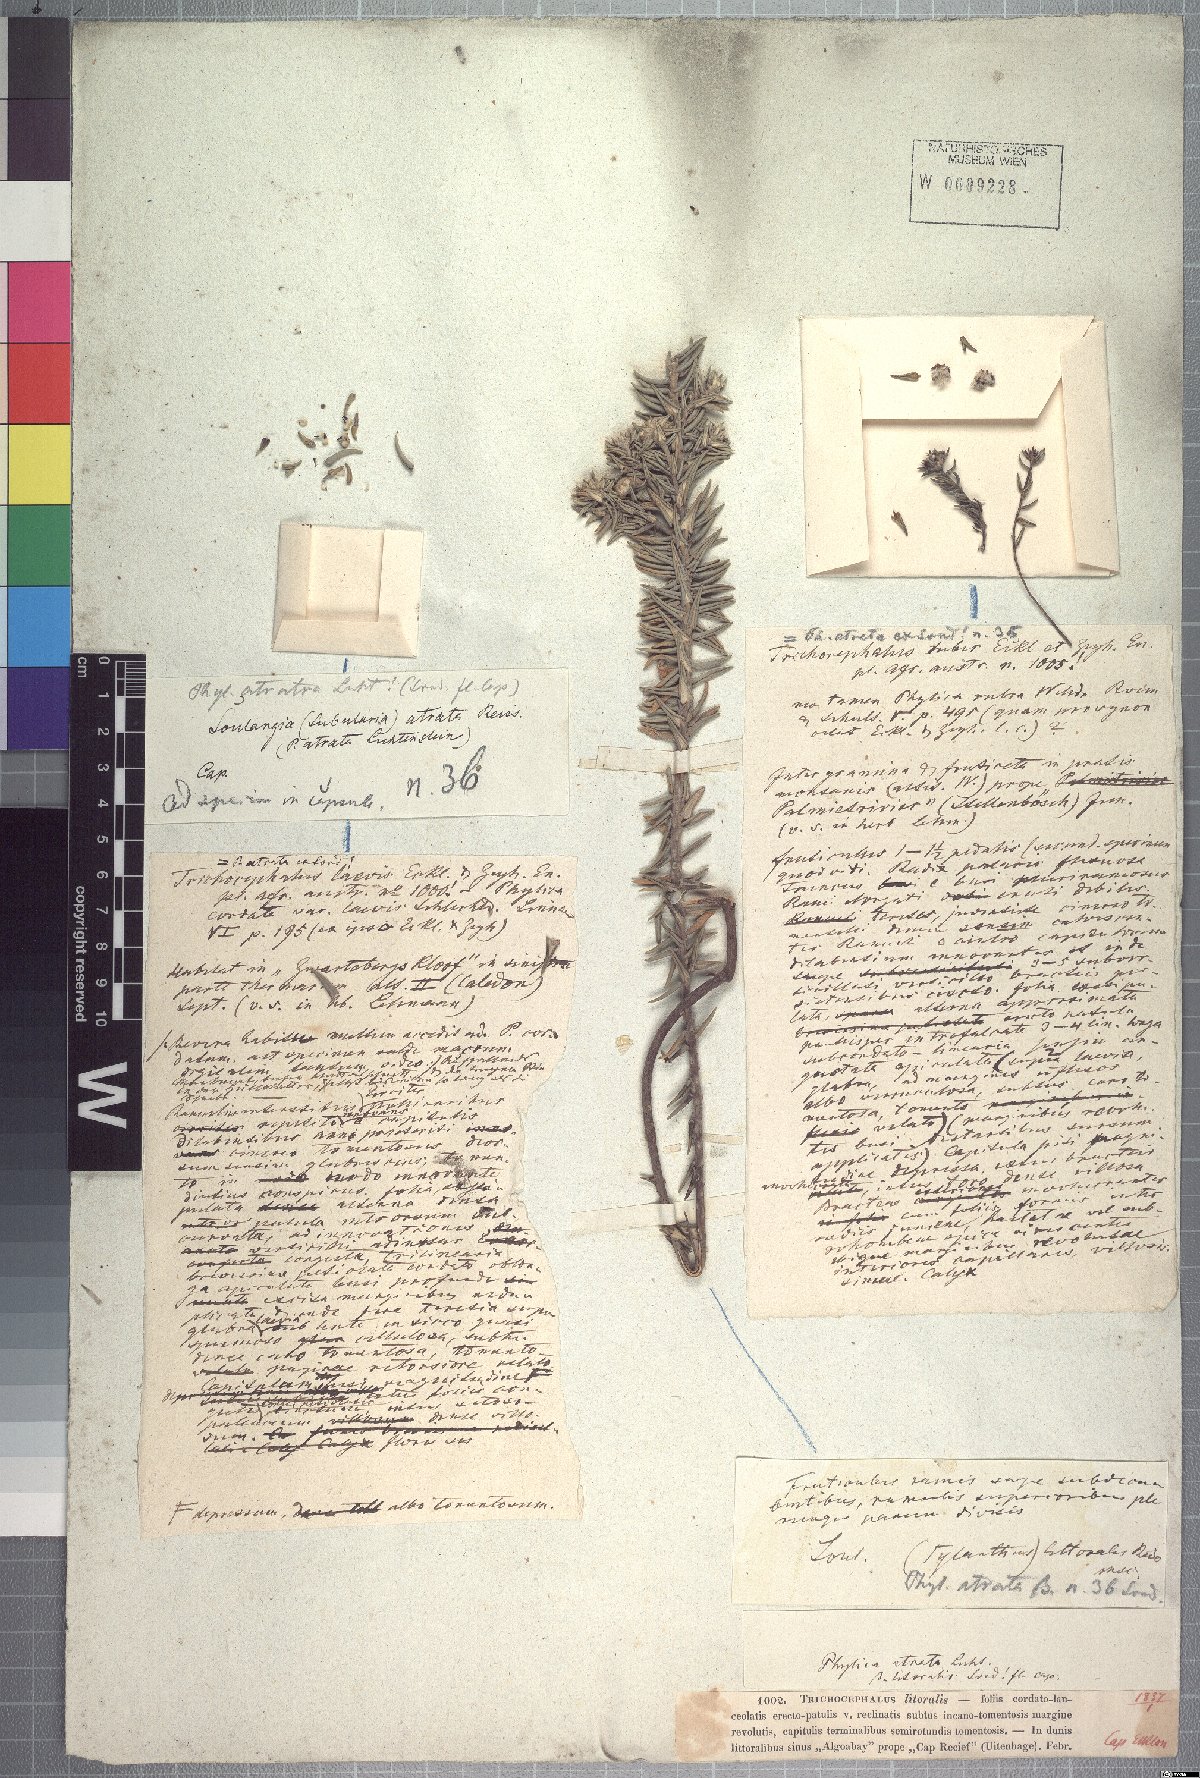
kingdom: Plantae
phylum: Tracheophyta
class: Magnoliopsida
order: Rosales
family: Rhamnaceae
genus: Phylica
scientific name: Phylica litoralis
